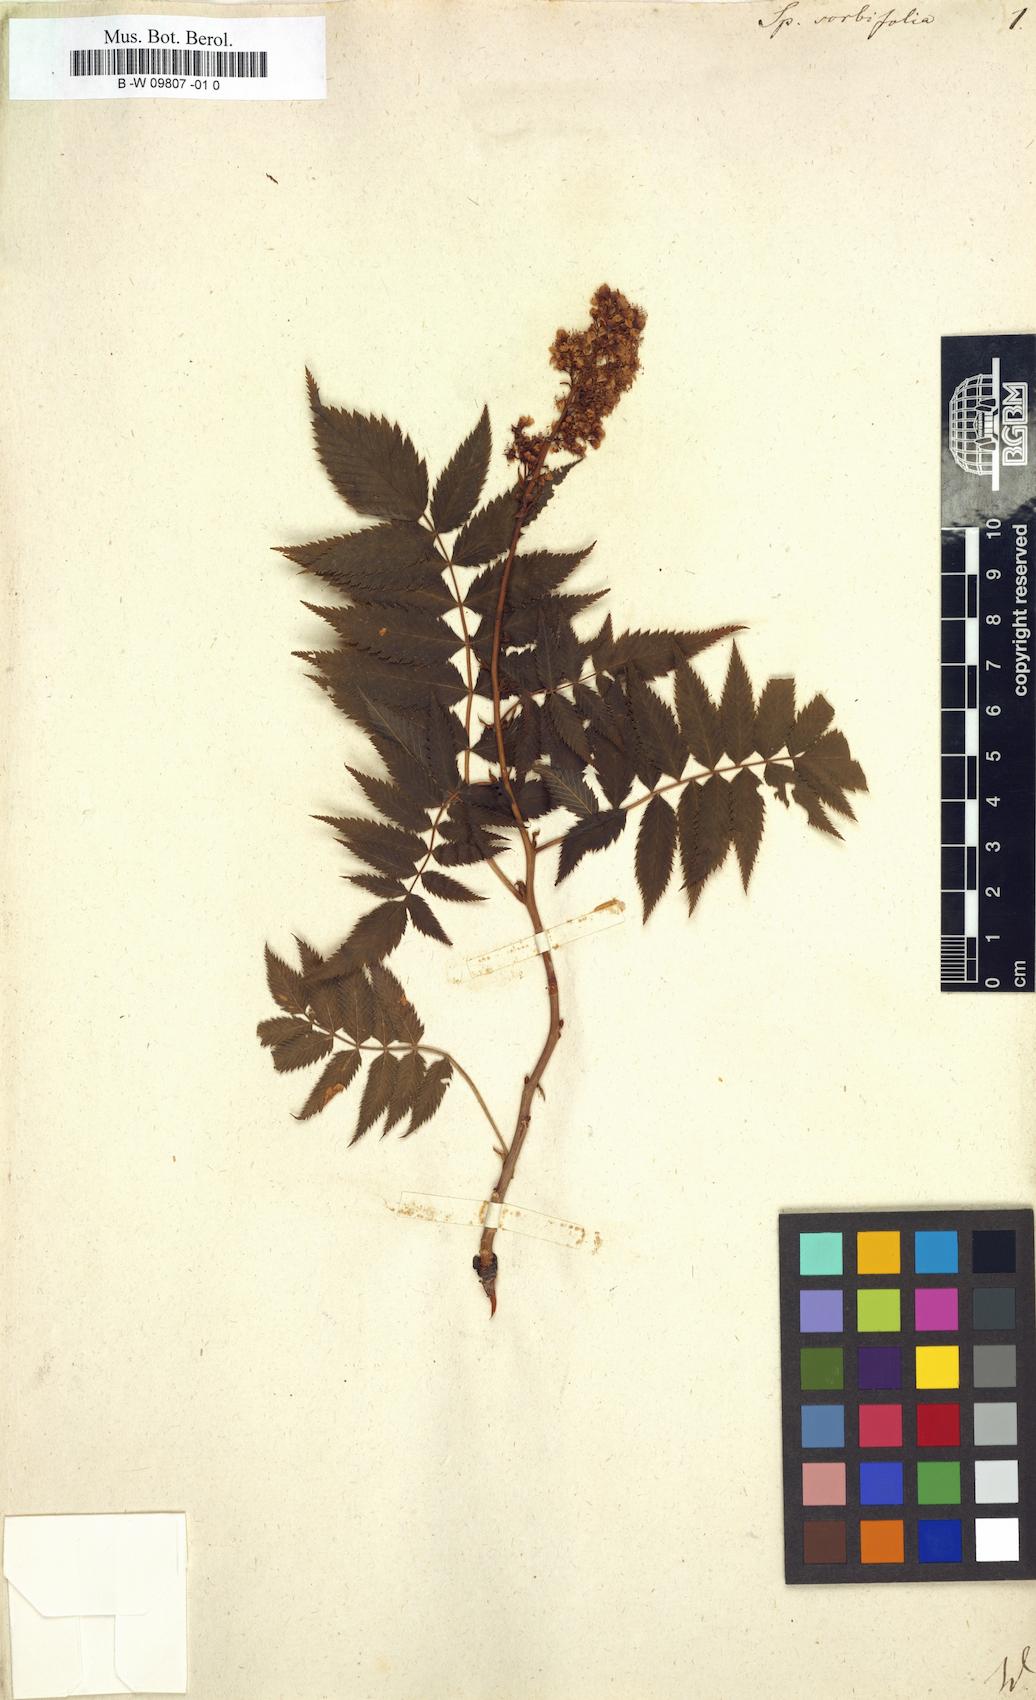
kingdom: Plantae
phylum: Tracheophyta
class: Magnoliopsida
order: Rosales
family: Rosaceae
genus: Sorbaria
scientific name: Sorbaria
